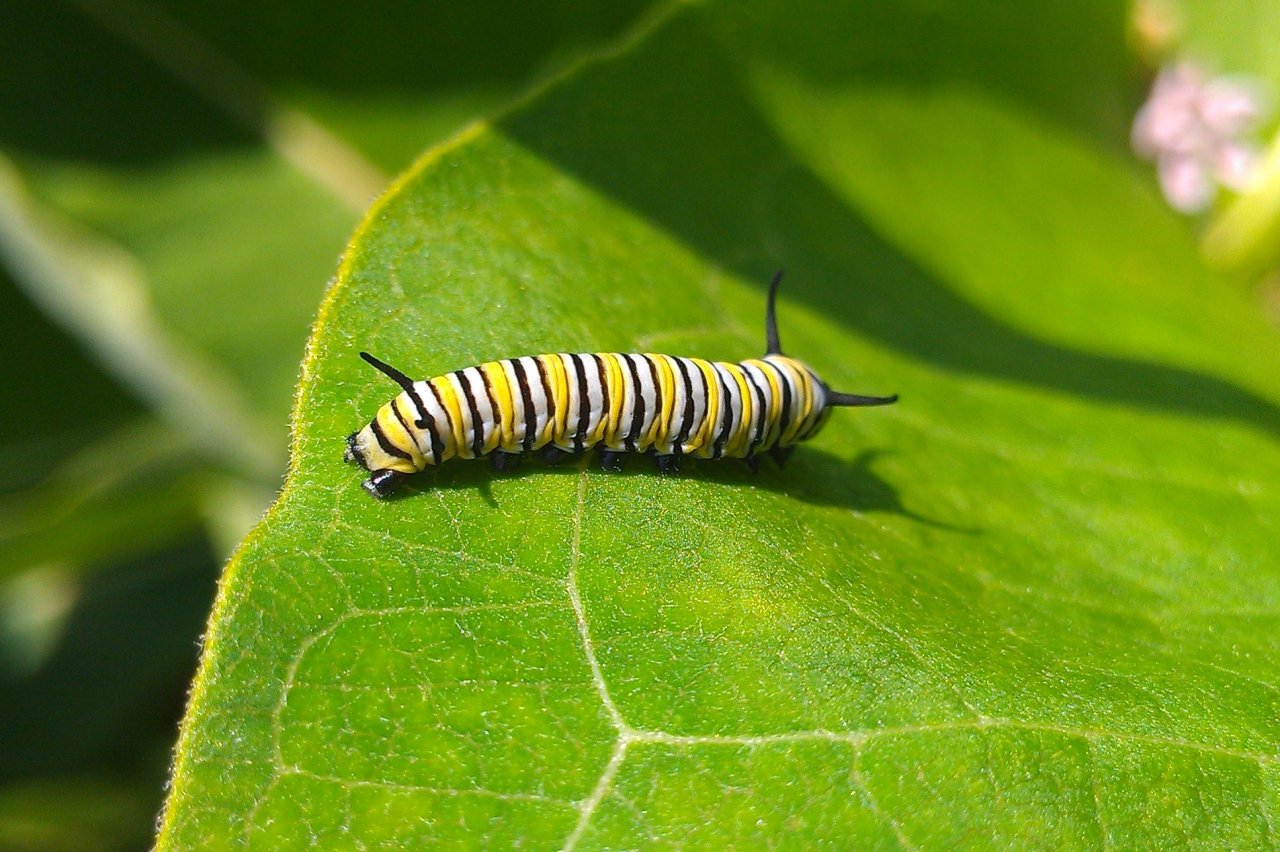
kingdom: Animalia
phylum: Arthropoda
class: Insecta
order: Lepidoptera
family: Nymphalidae
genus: Danaus
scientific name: Danaus plexippus
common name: Monarch
